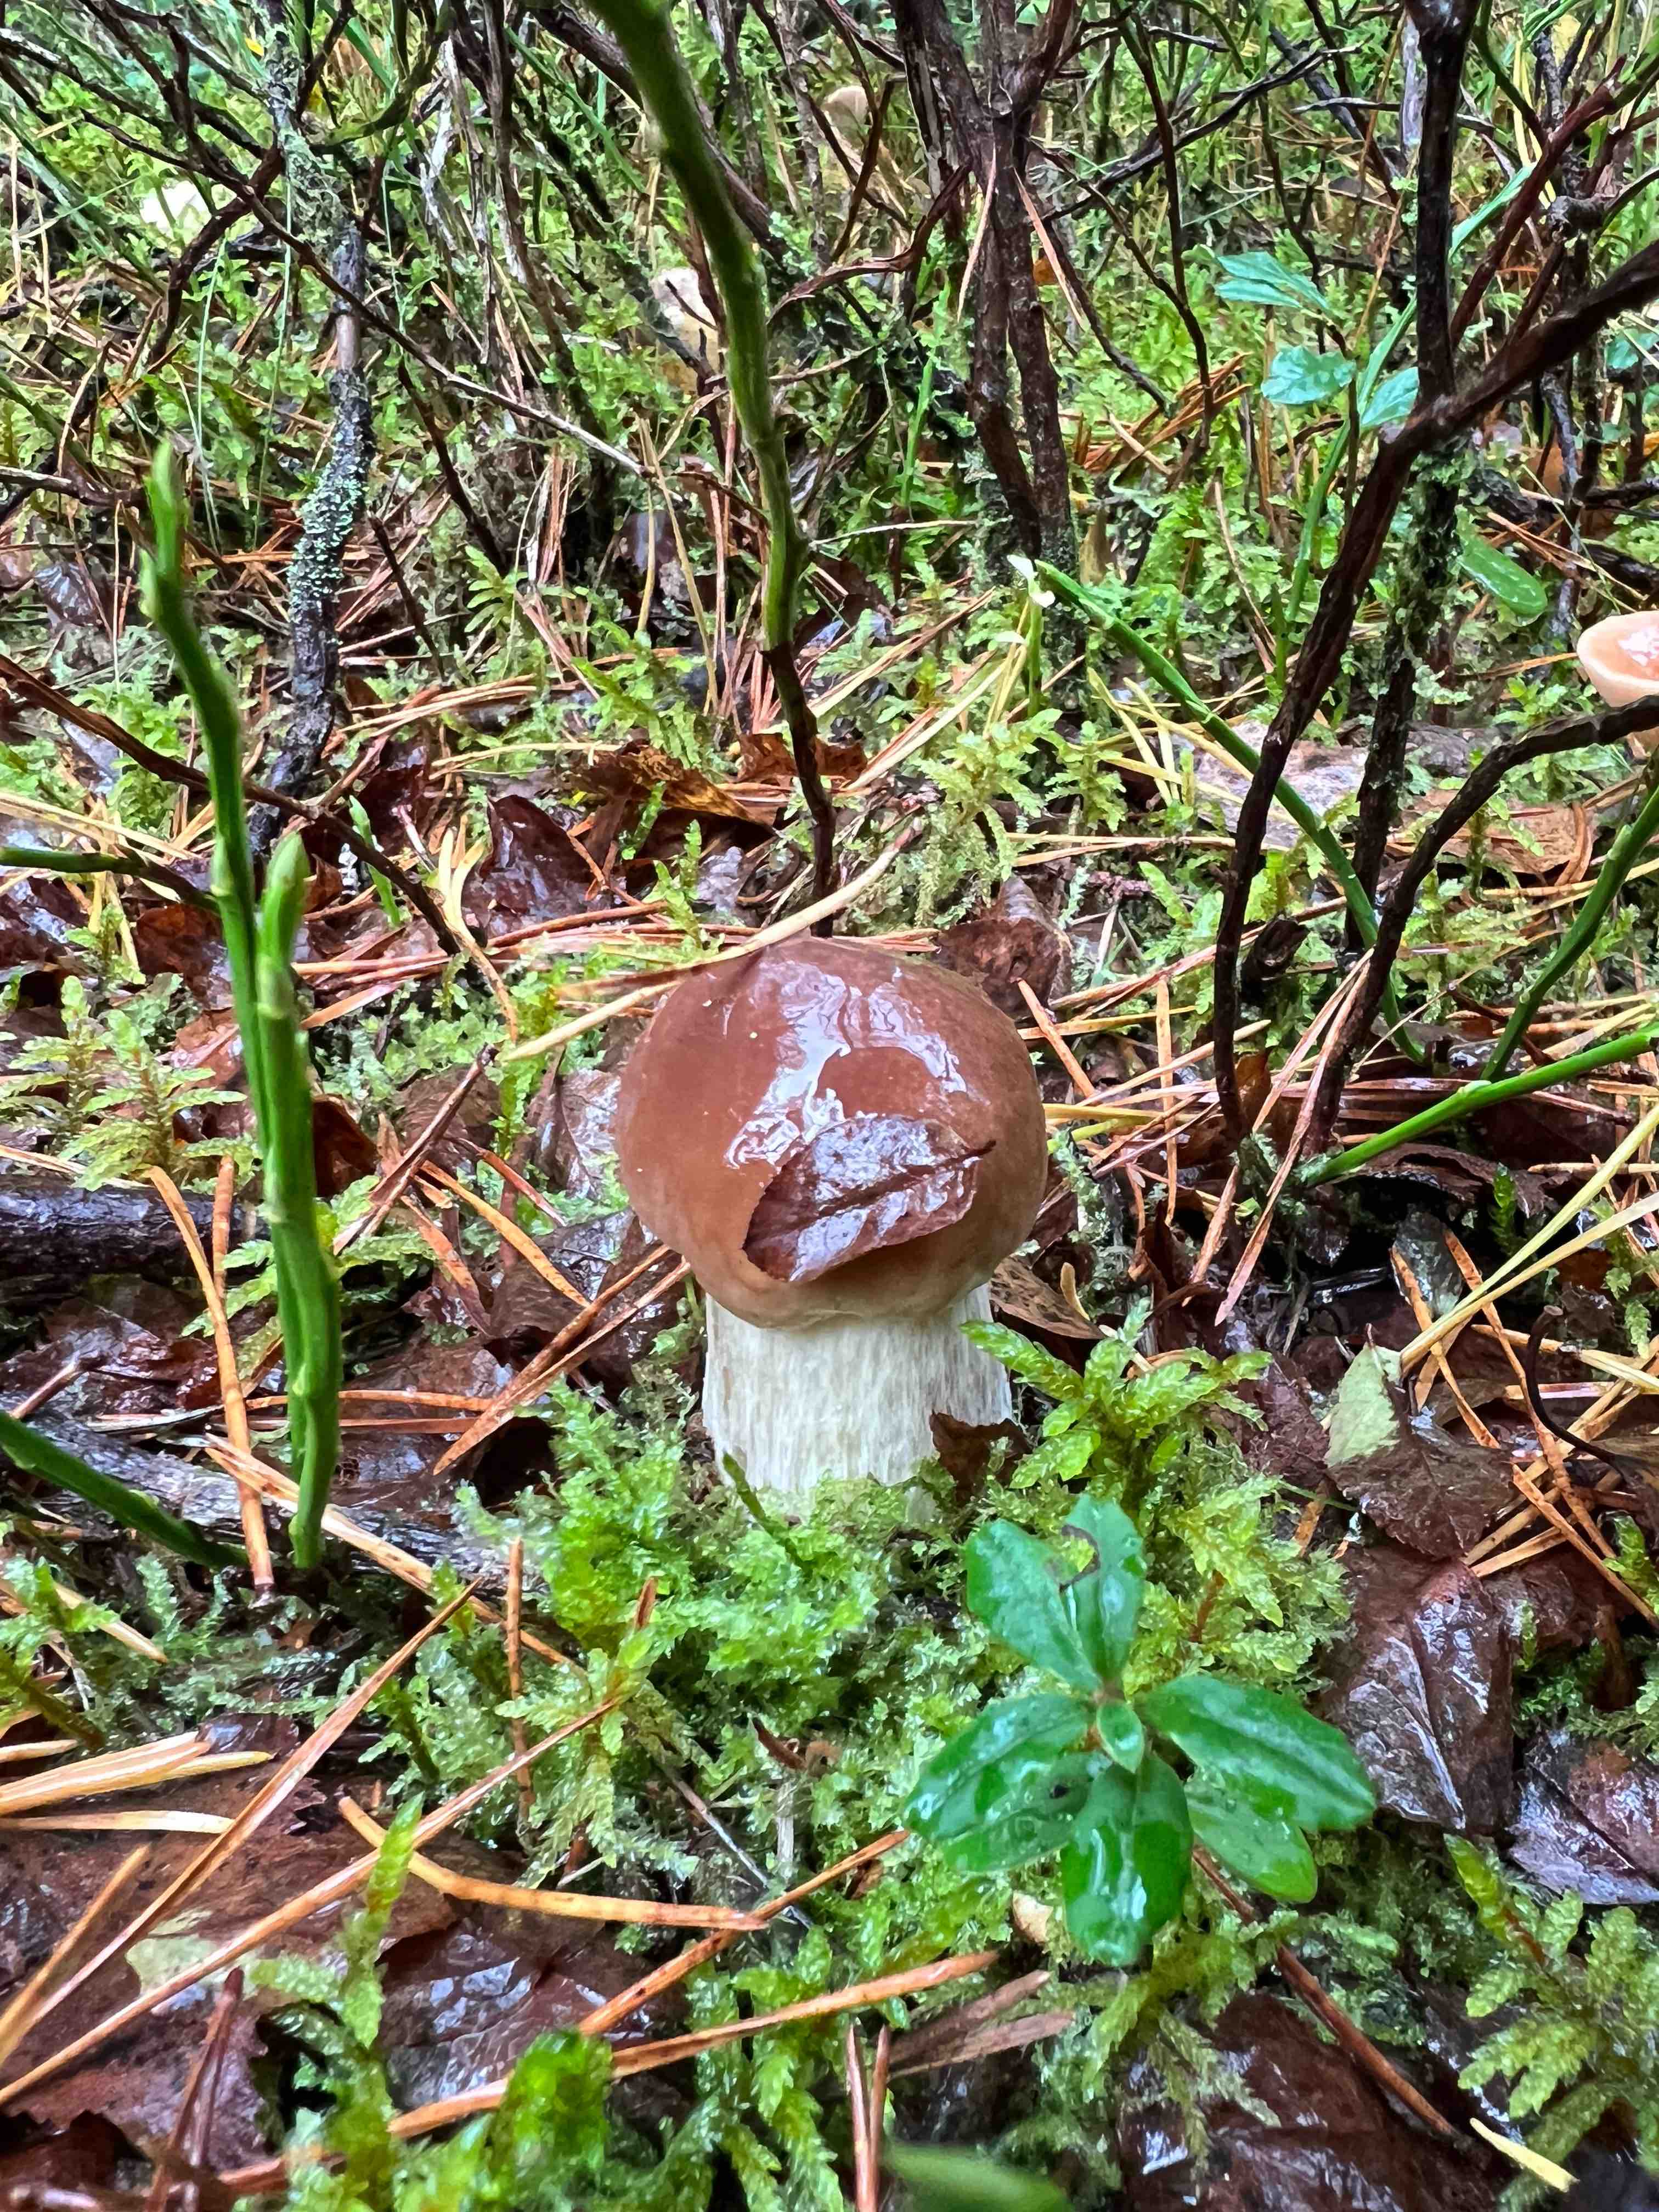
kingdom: Fungi
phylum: Basidiomycota
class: Agaricomycetes
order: Boletales
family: Boletaceae
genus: Boletus
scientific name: Boletus edulis
